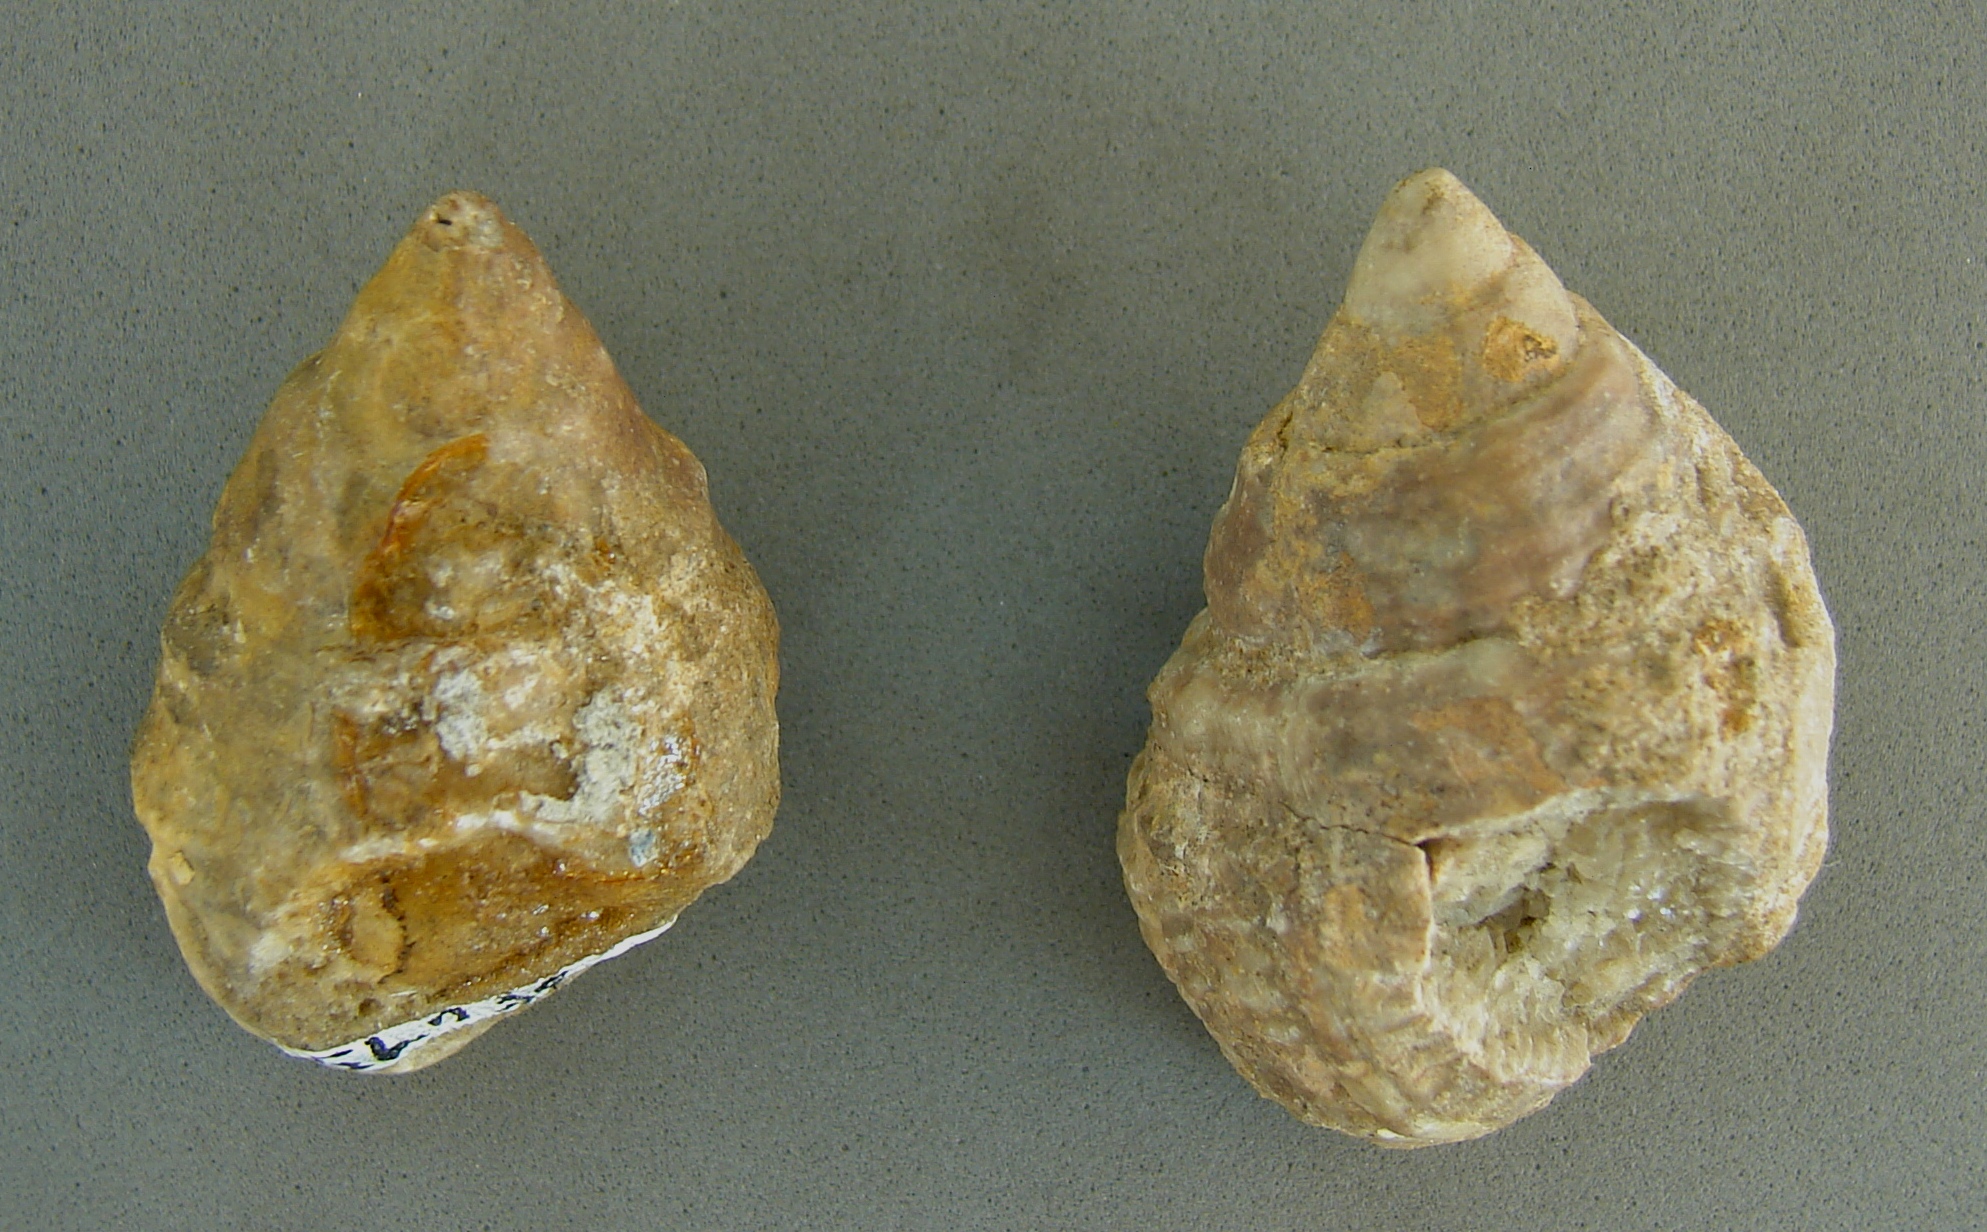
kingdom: Animalia
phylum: Mollusca
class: Gastropoda
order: Neogastropoda
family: Purpurinidae
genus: Microschiza
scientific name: Microschiza Turbo semiornatus
